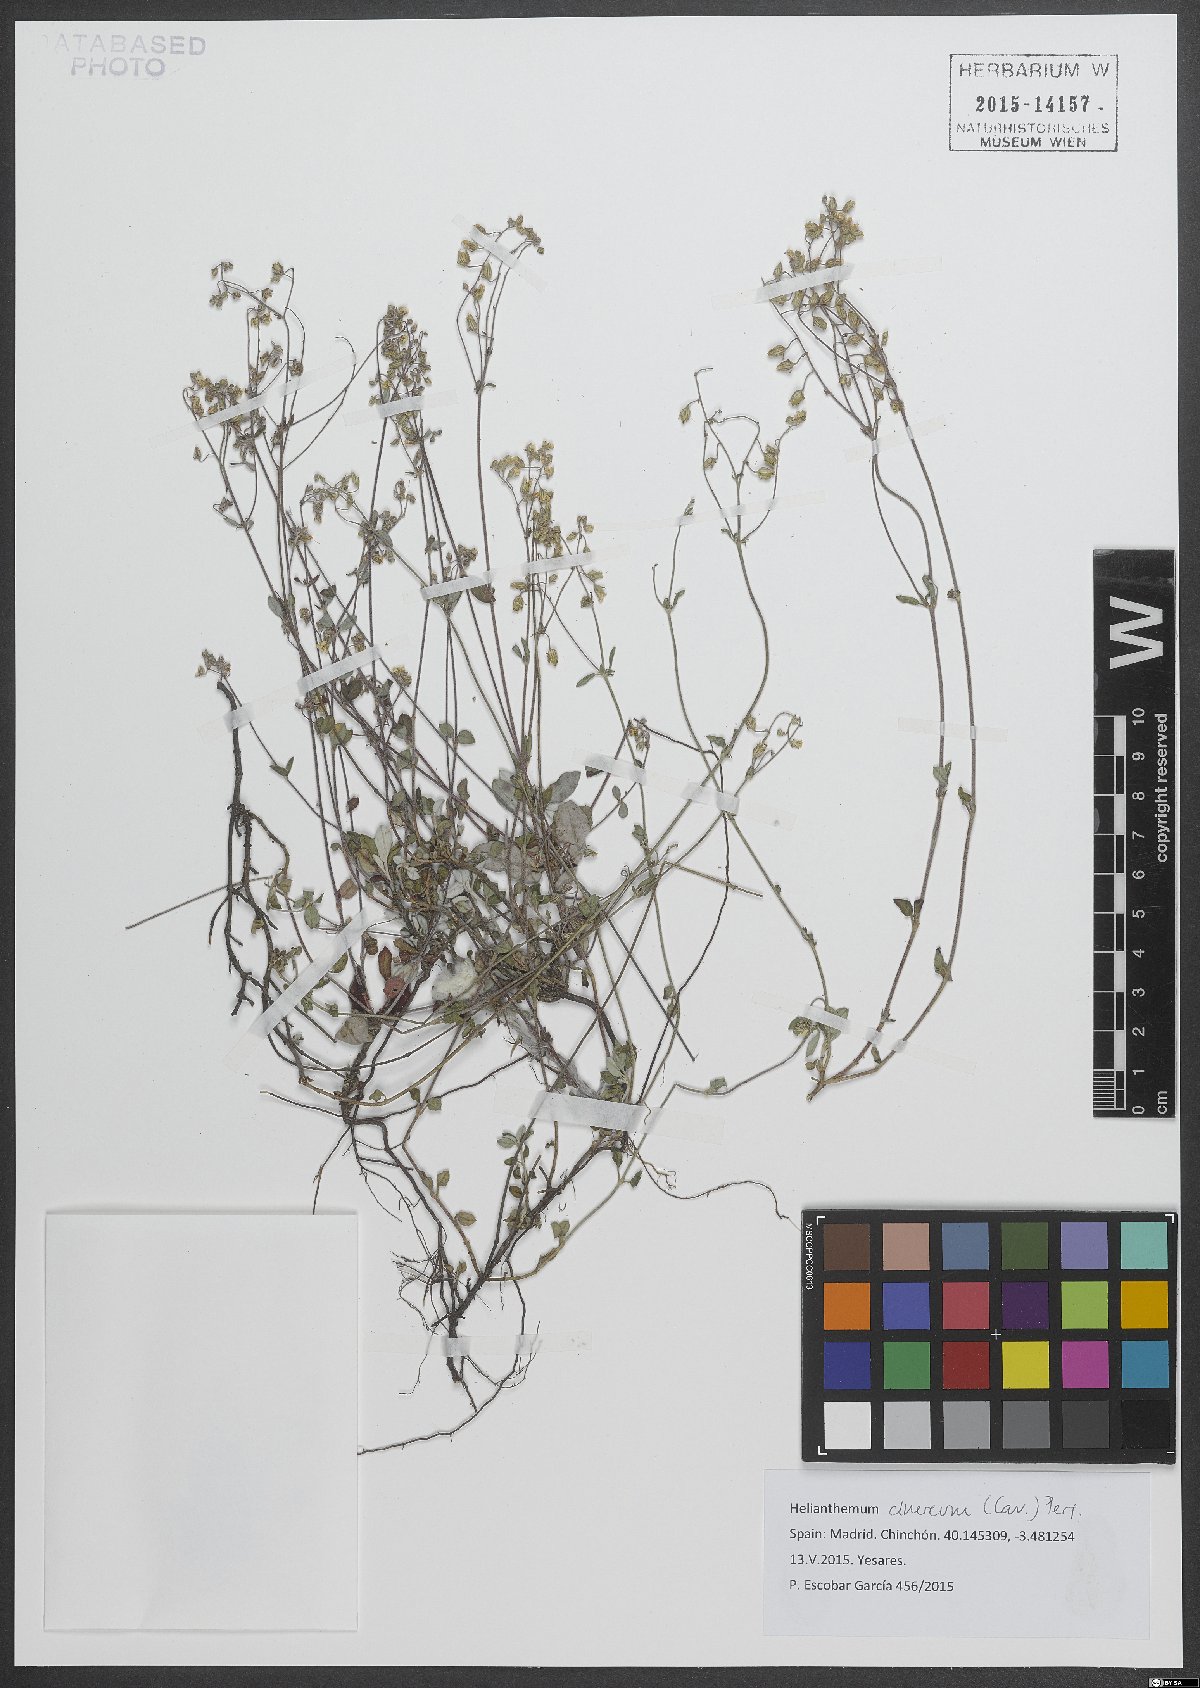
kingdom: Plantae
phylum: Tracheophyta
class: Magnoliopsida
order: Malvales
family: Cistaceae
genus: Helianthemum
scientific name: Helianthemum cinereum
